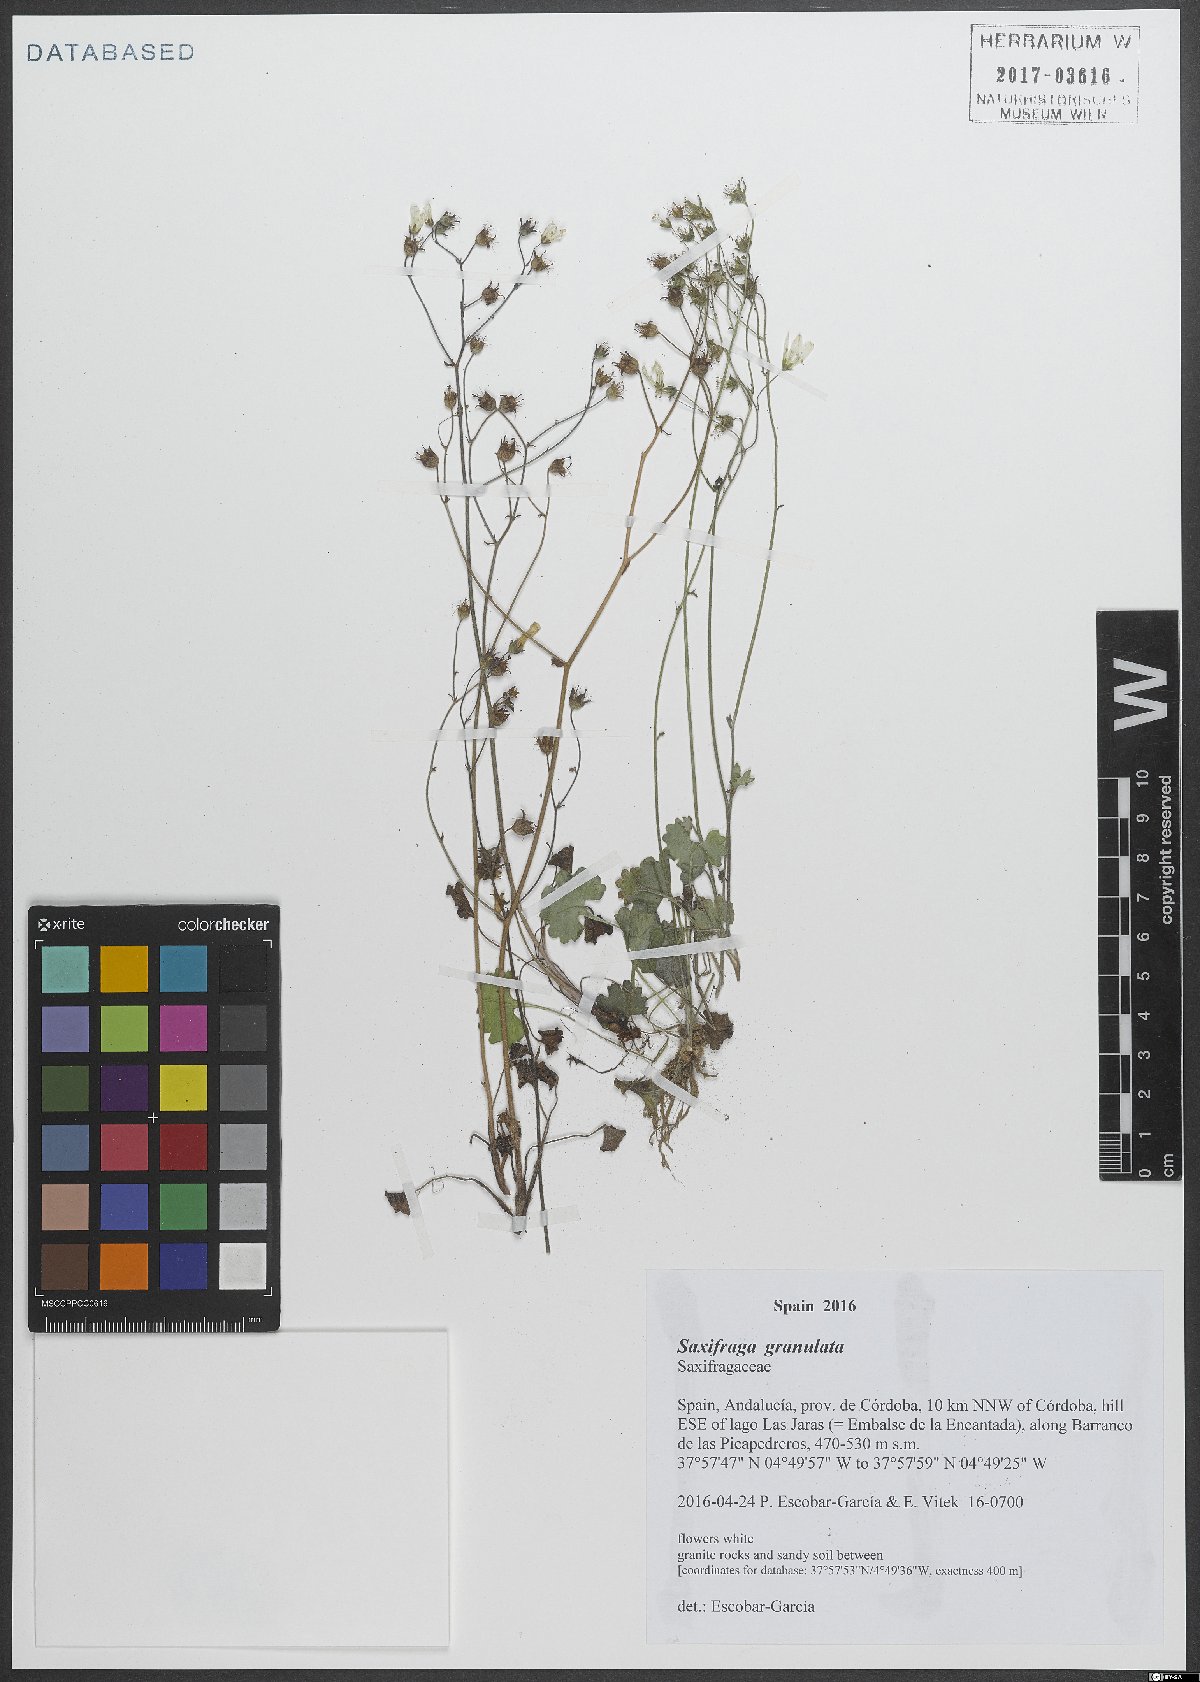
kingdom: Plantae
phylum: Tracheophyta
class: Magnoliopsida
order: Saxifragales
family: Saxifragaceae
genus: Saxifraga
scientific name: Saxifraga granulata
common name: Meadow saxifrage
